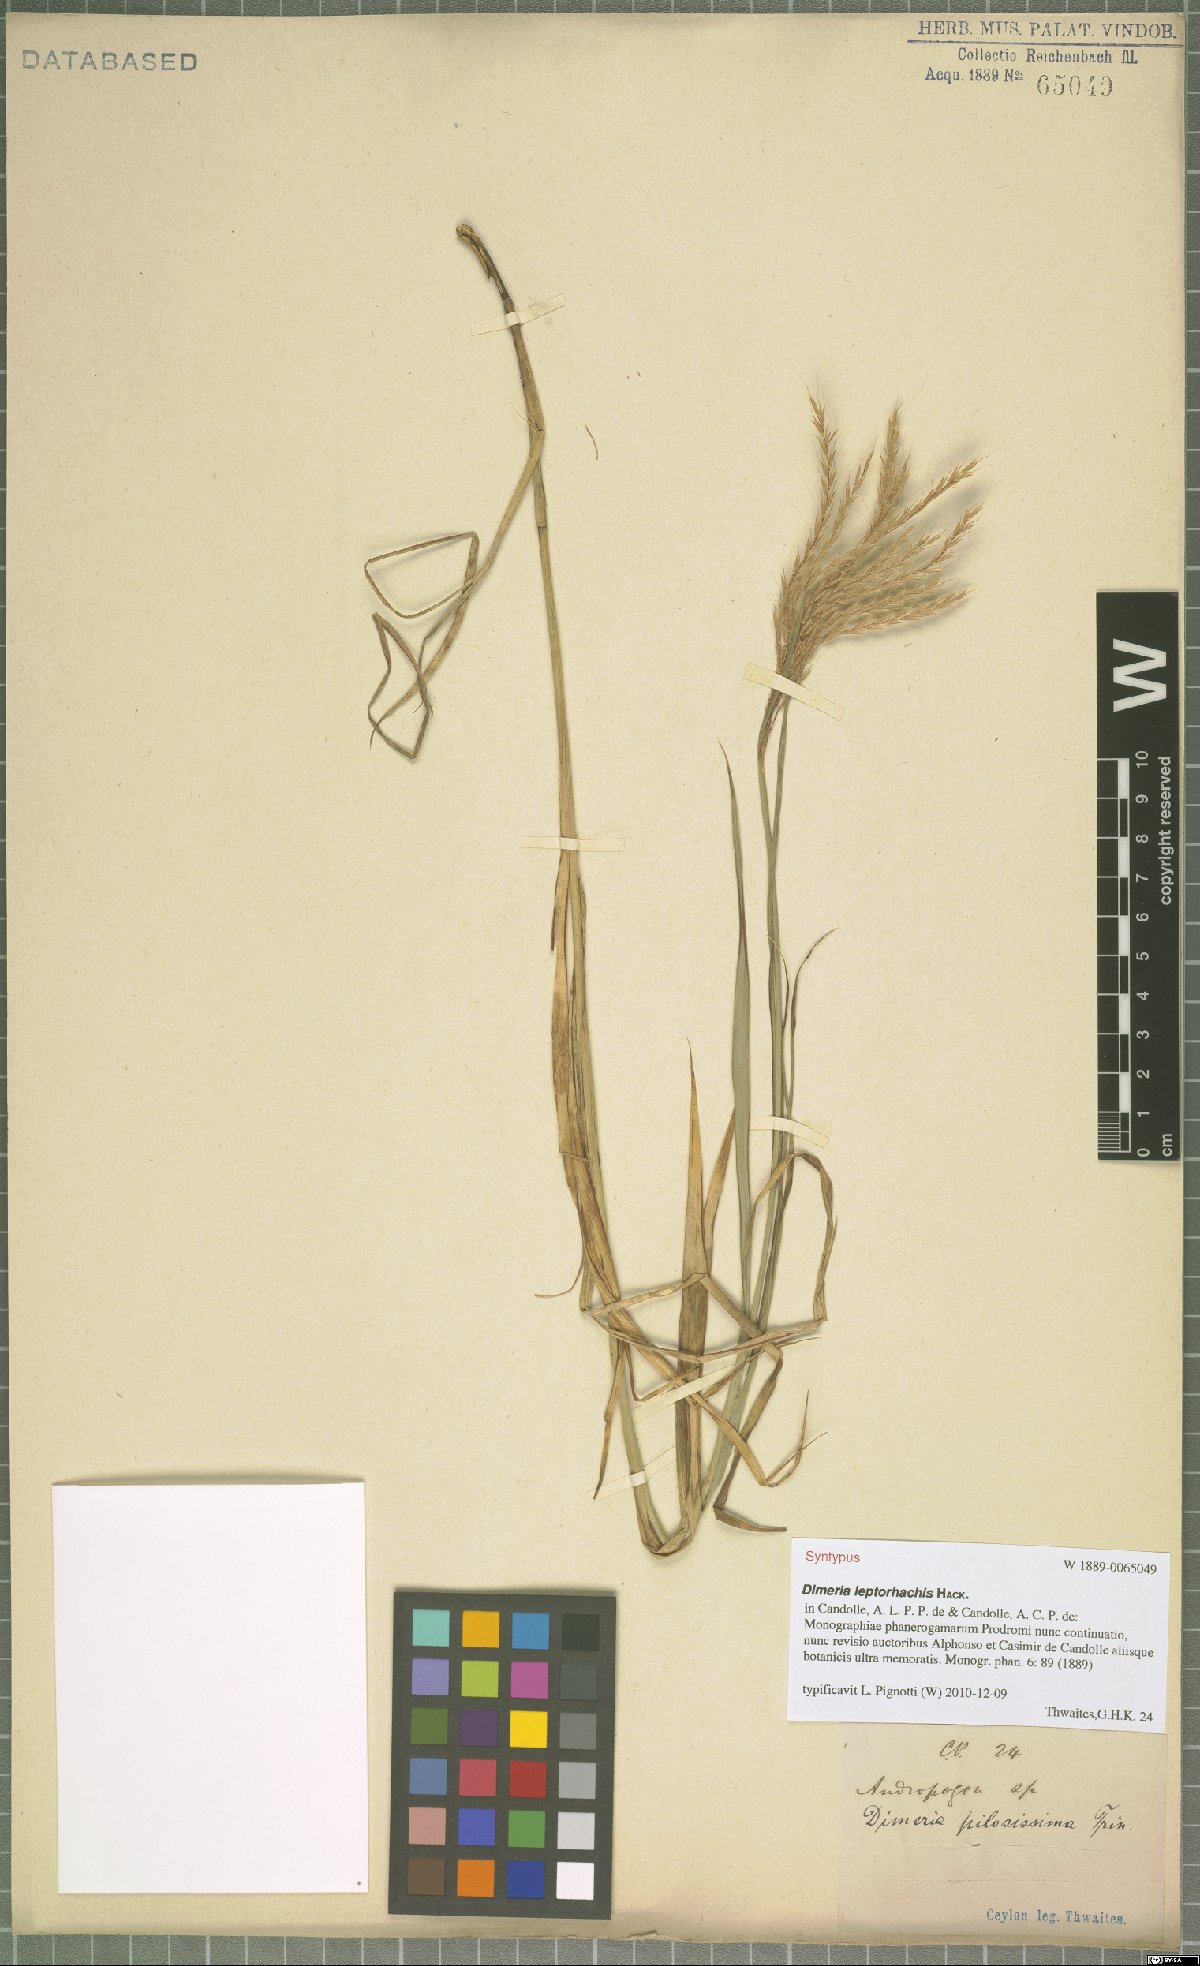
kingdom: Plantae
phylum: Tracheophyta
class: Liliopsida
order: Poales
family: Poaceae
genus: Dimeria
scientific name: Dimeria gracilis
